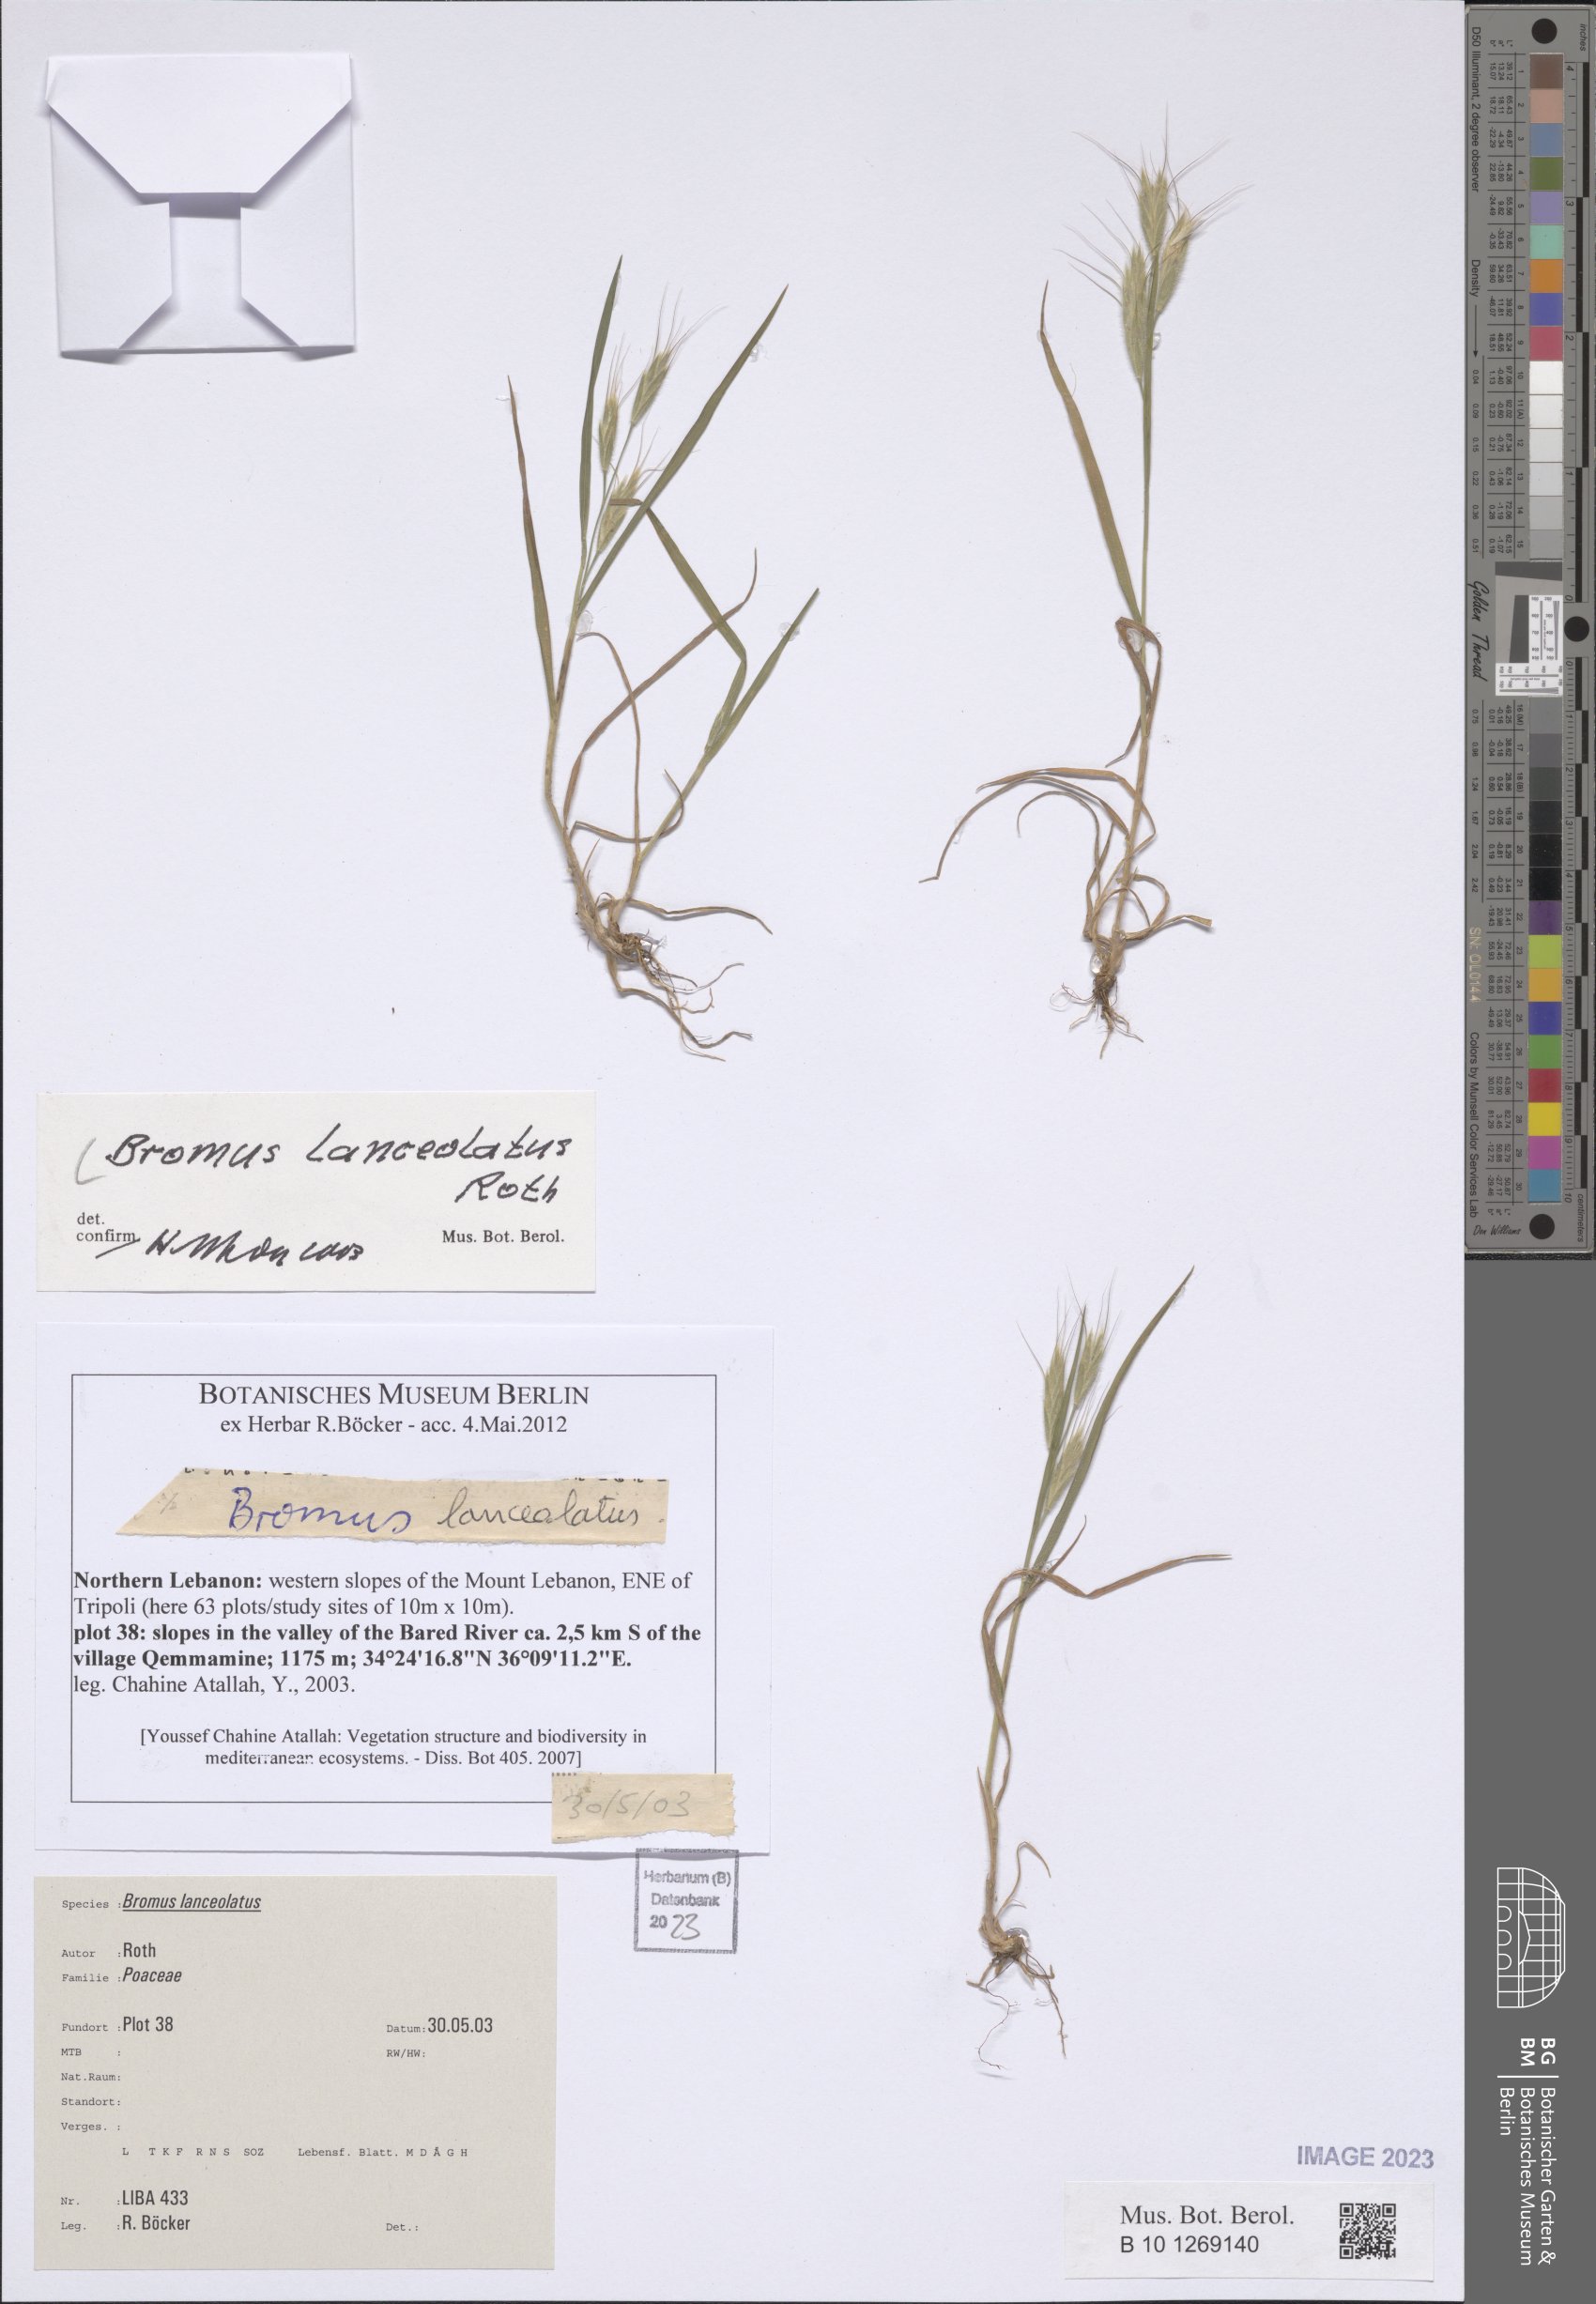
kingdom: Plantae
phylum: Tracheophyta
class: Liliopsida
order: Poales
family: Poaceae
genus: Bromus
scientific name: Bromus lanceolatus
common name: Mediterranean brome
